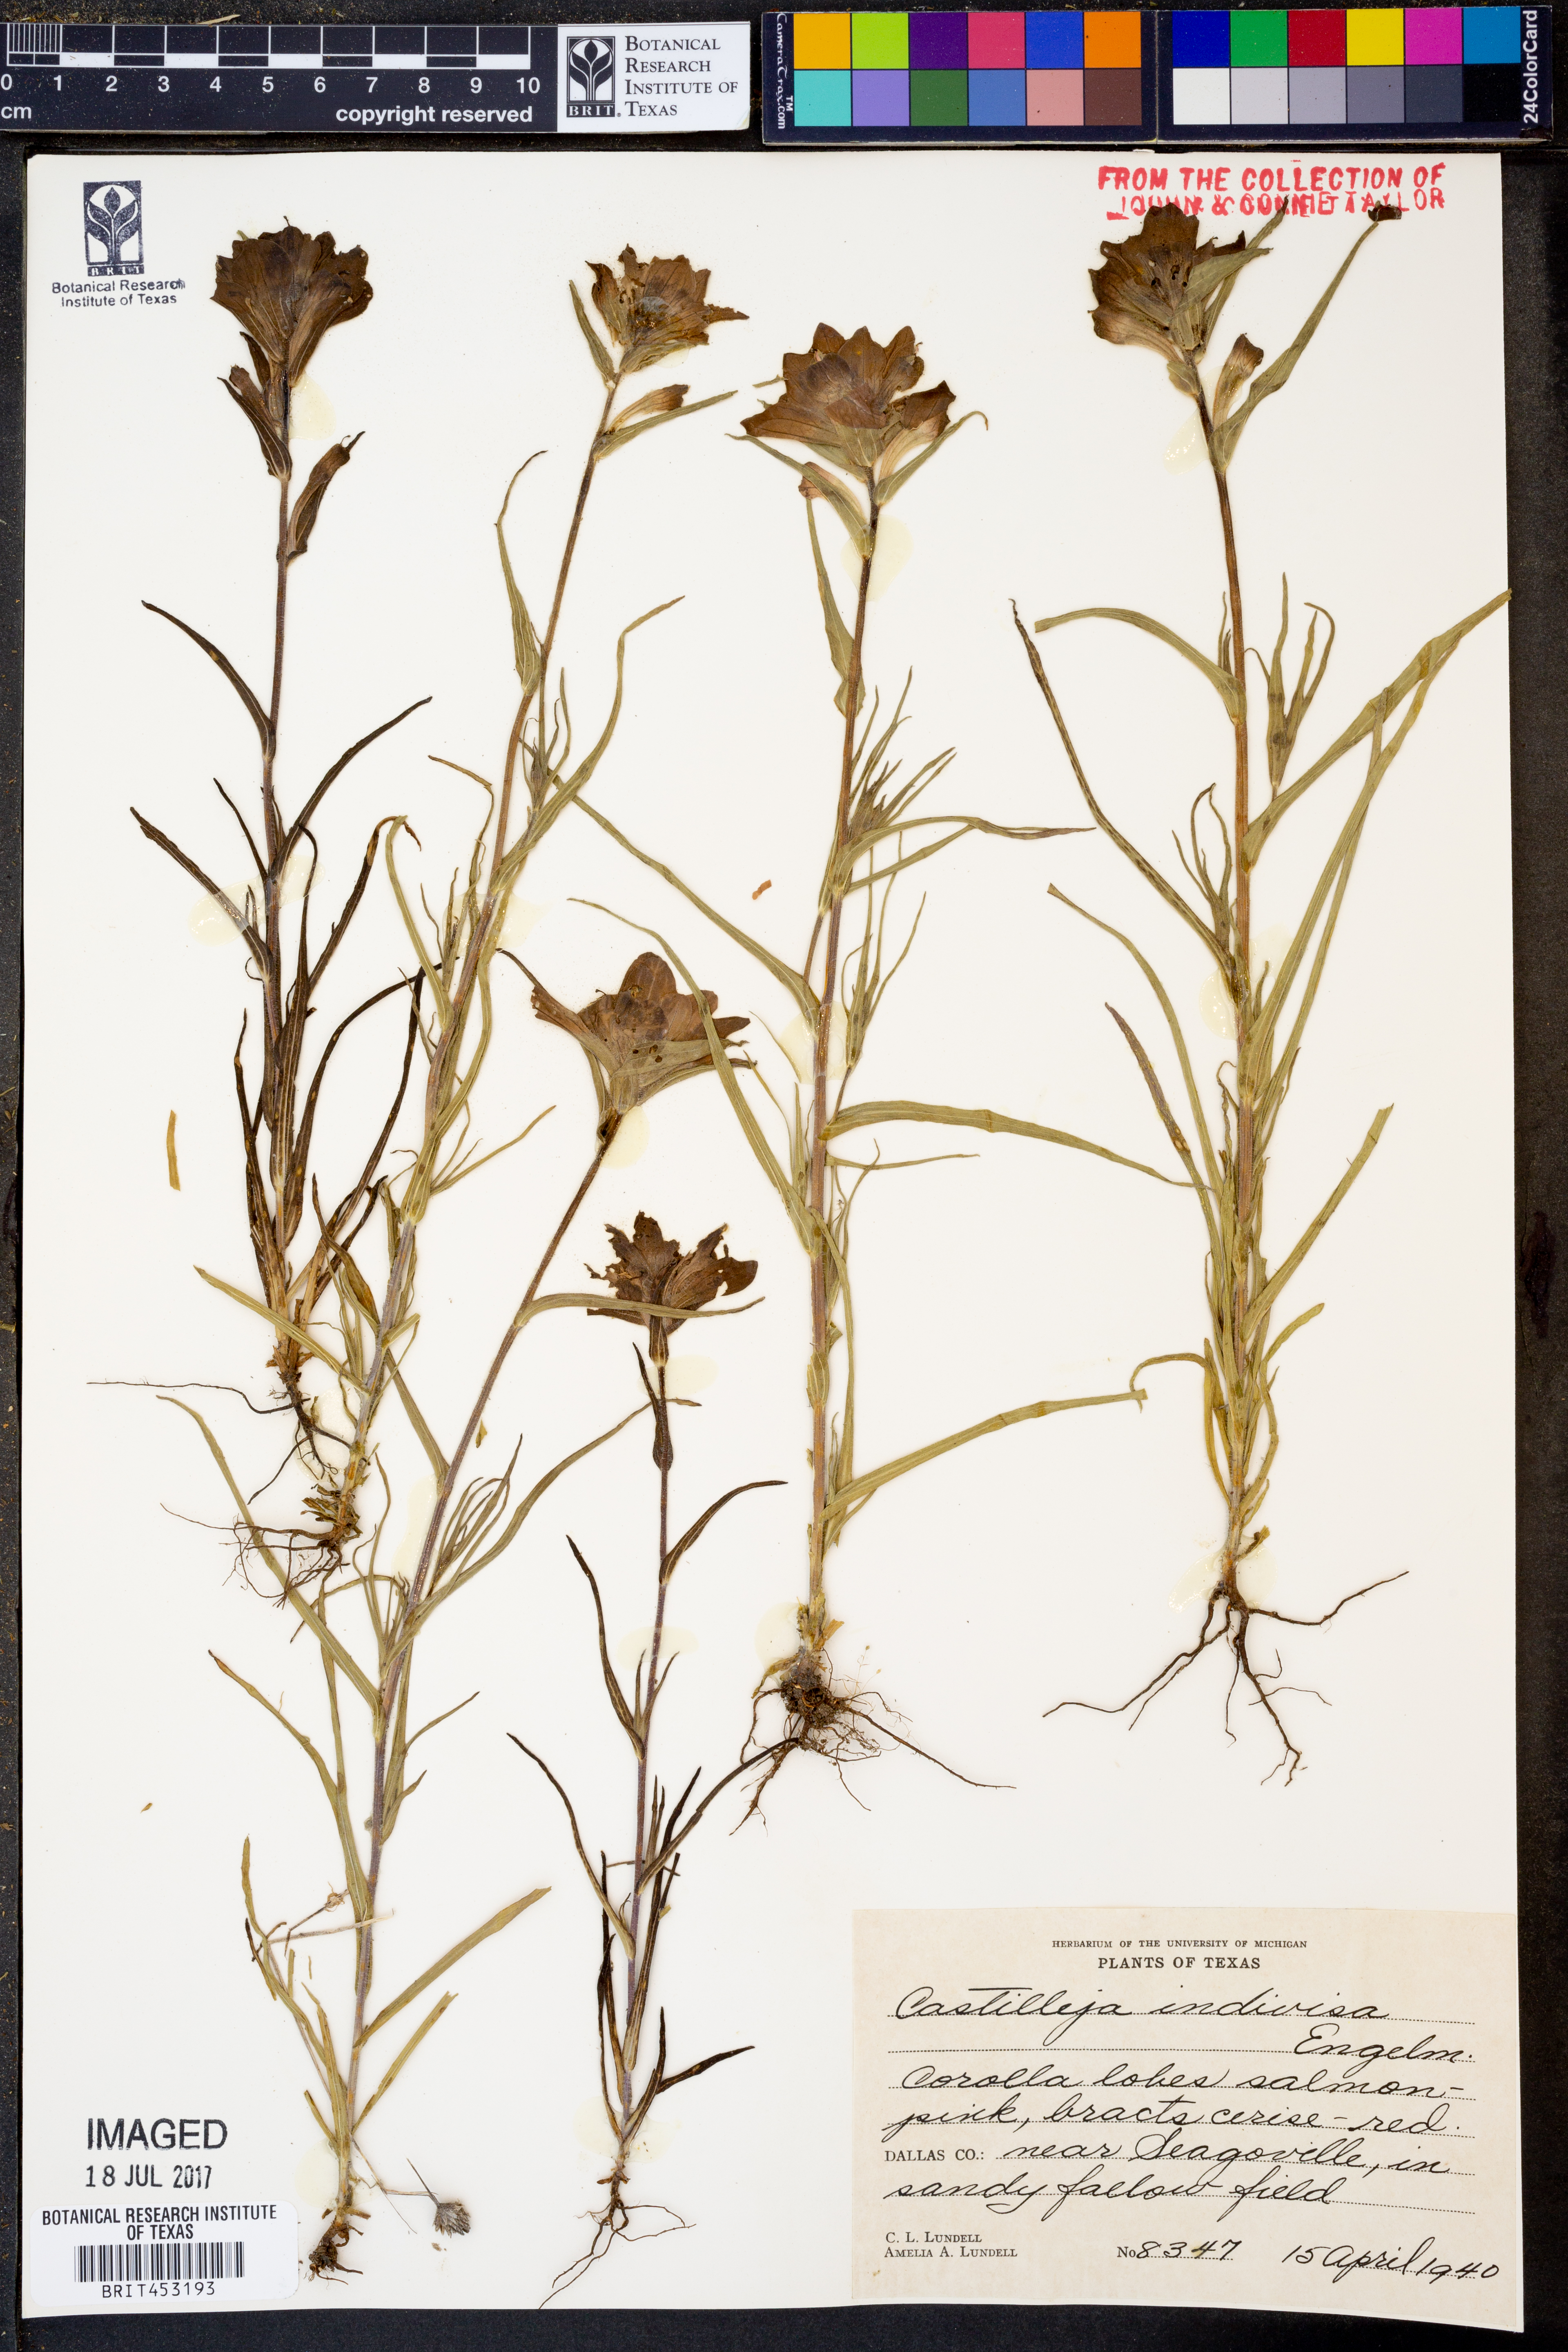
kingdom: Plantae
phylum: Tracheophyta
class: Magnoliopsida
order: Lamiales
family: Orobanchaceae
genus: Castilleja
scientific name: Castilleja indivisa
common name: Texas paintbrush
